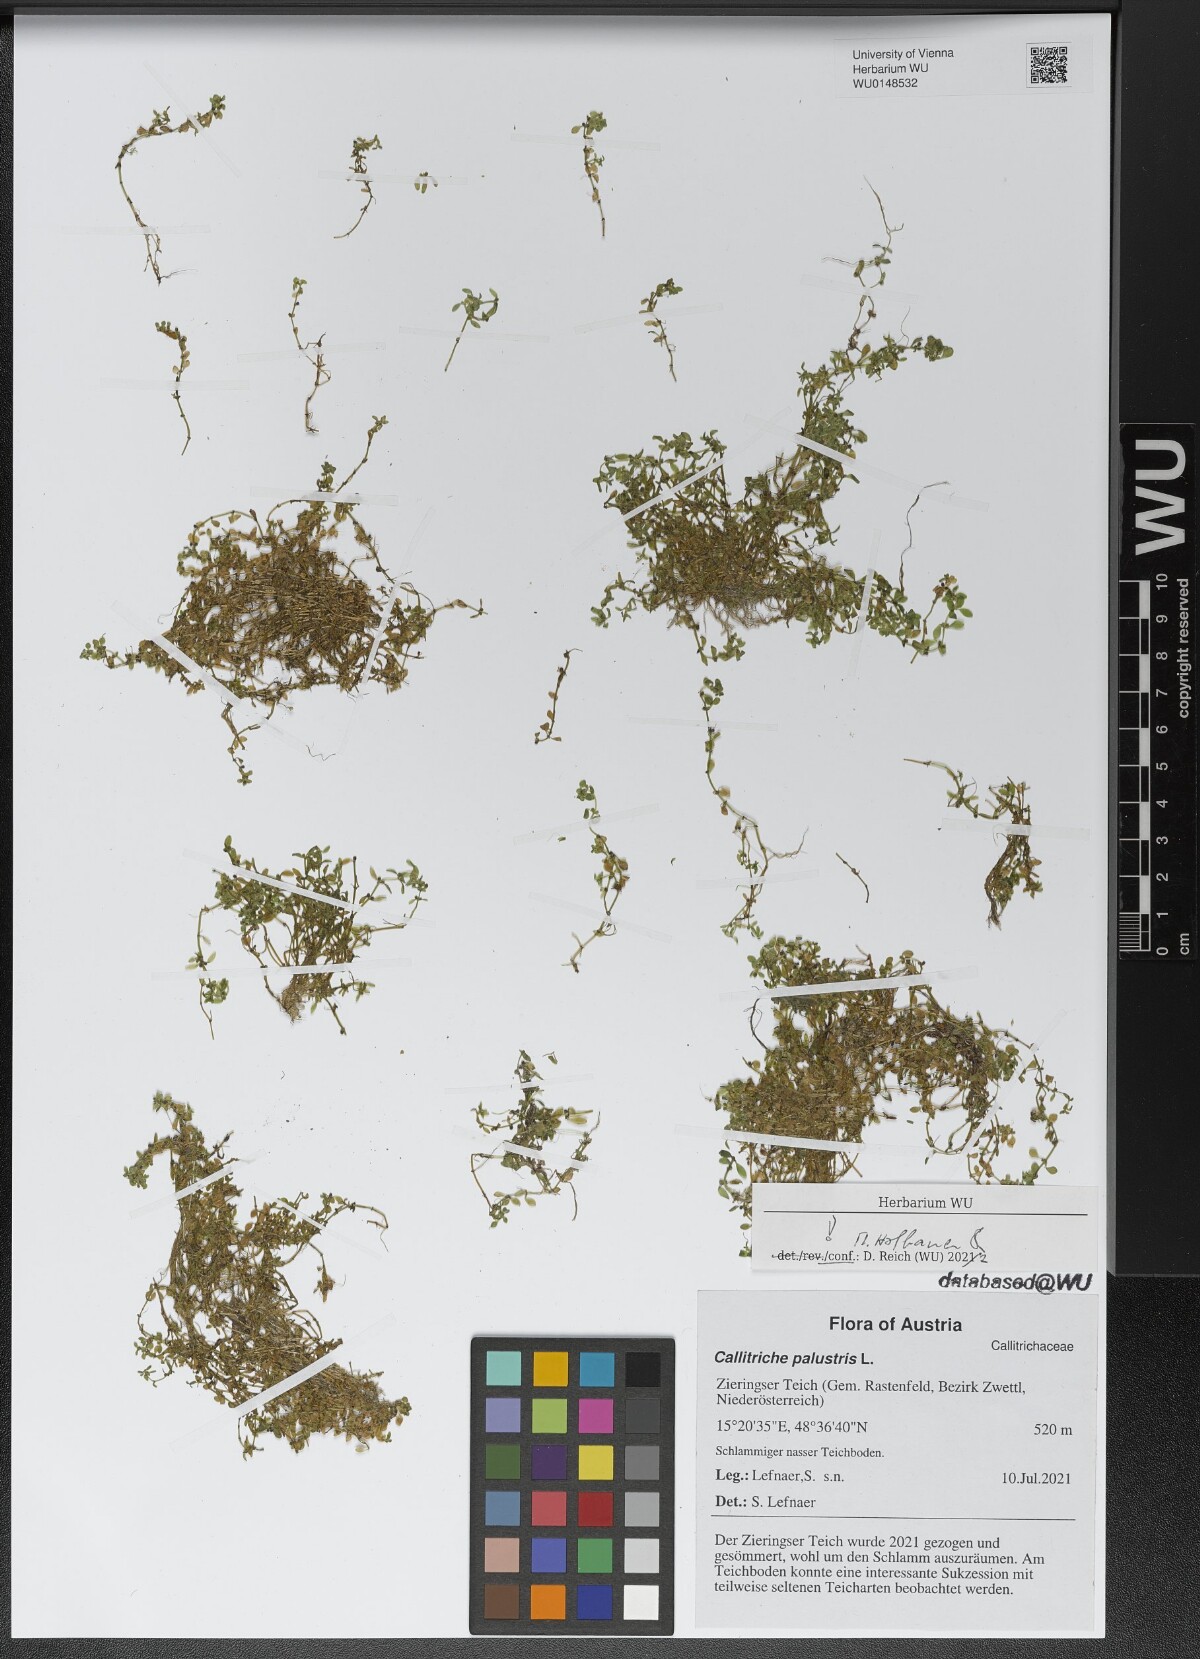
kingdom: Plantae
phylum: Tracheophyta
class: Magnoliopsida
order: Lamiales
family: Plantaginaceae
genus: Callitriche
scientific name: Callitriche palustris
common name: Spring water-starwort
